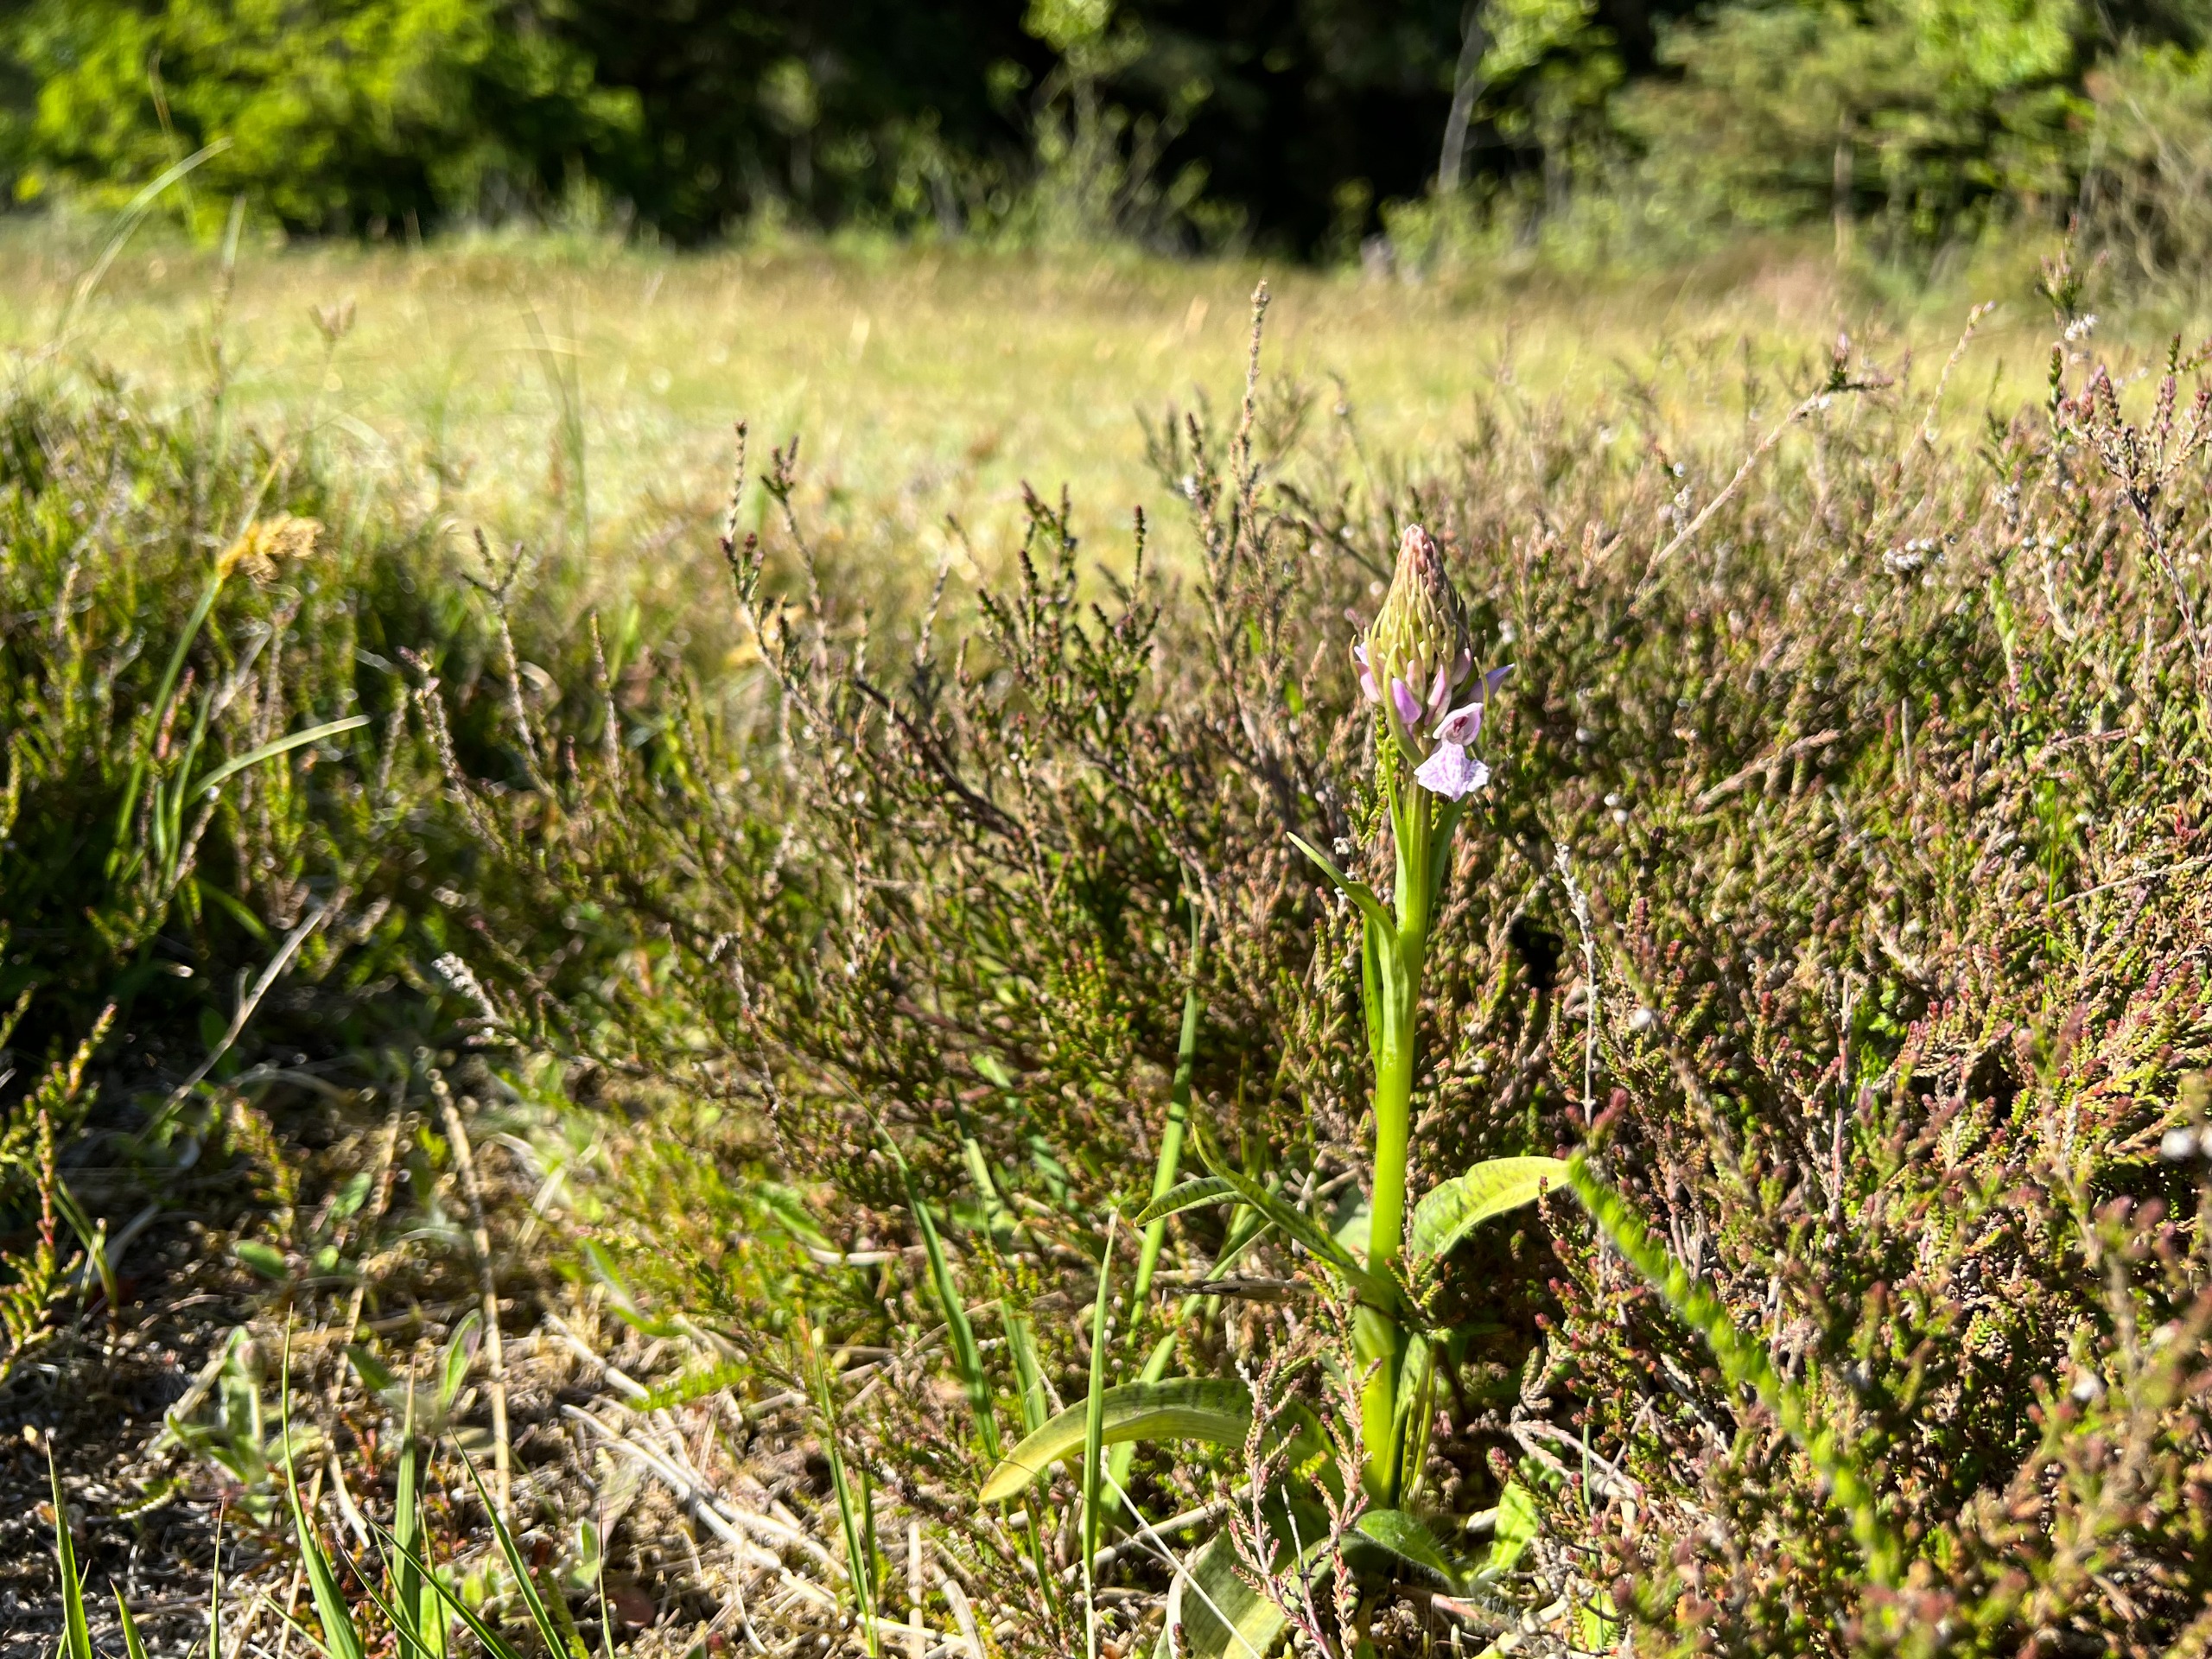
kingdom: Plantae
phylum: Tracheophyta
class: Liliopsida
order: Asparagales
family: Orchidaceae
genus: Dactylorhiza
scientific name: Dactylorhiza maculata
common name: Plettet gøgeurt
